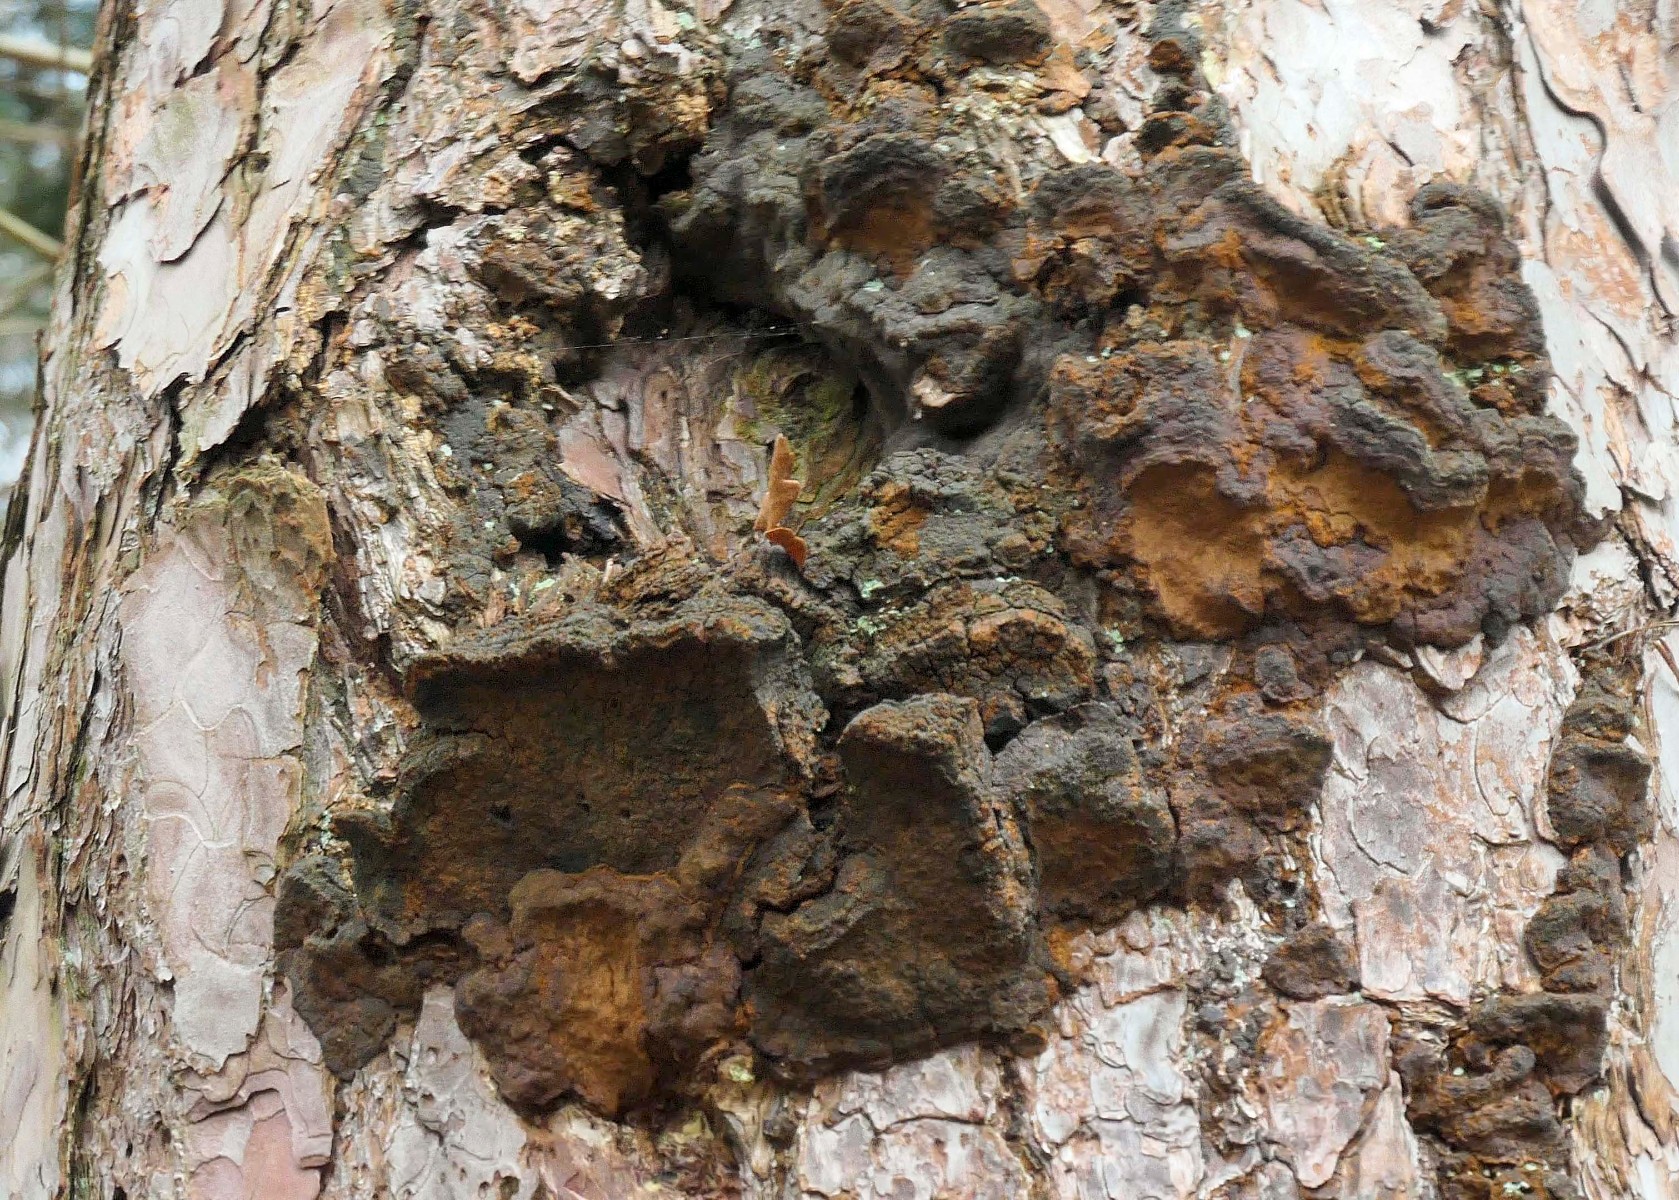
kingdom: Fungi
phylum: Basidiomycota
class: Agaricomycetes
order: Hymenochaetales
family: Hymenochaetaceae
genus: Porodaedalea
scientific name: Porodaedalea pini
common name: fyrre-ildporesvamp
